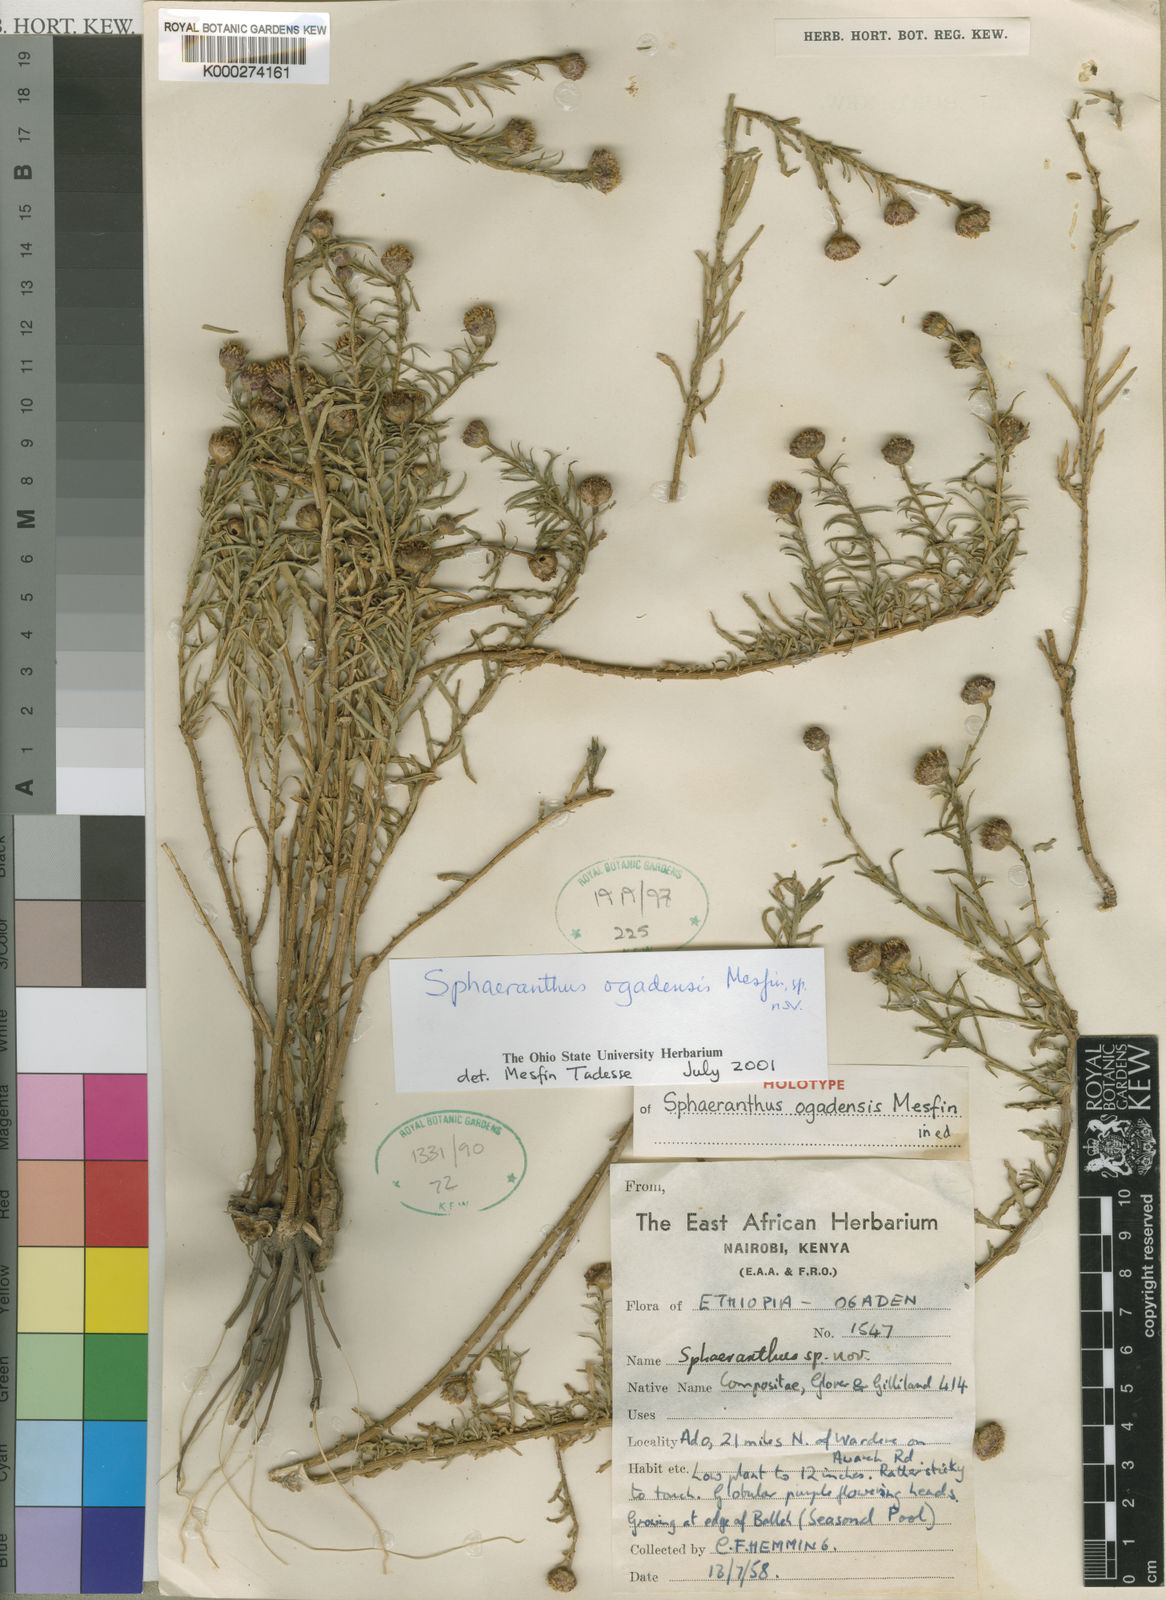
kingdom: Plantae
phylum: Tracheophyta
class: Magnoliopsida
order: Asterales
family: Asteraceae
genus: Sphaeranthus
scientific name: Sphaeranthus
